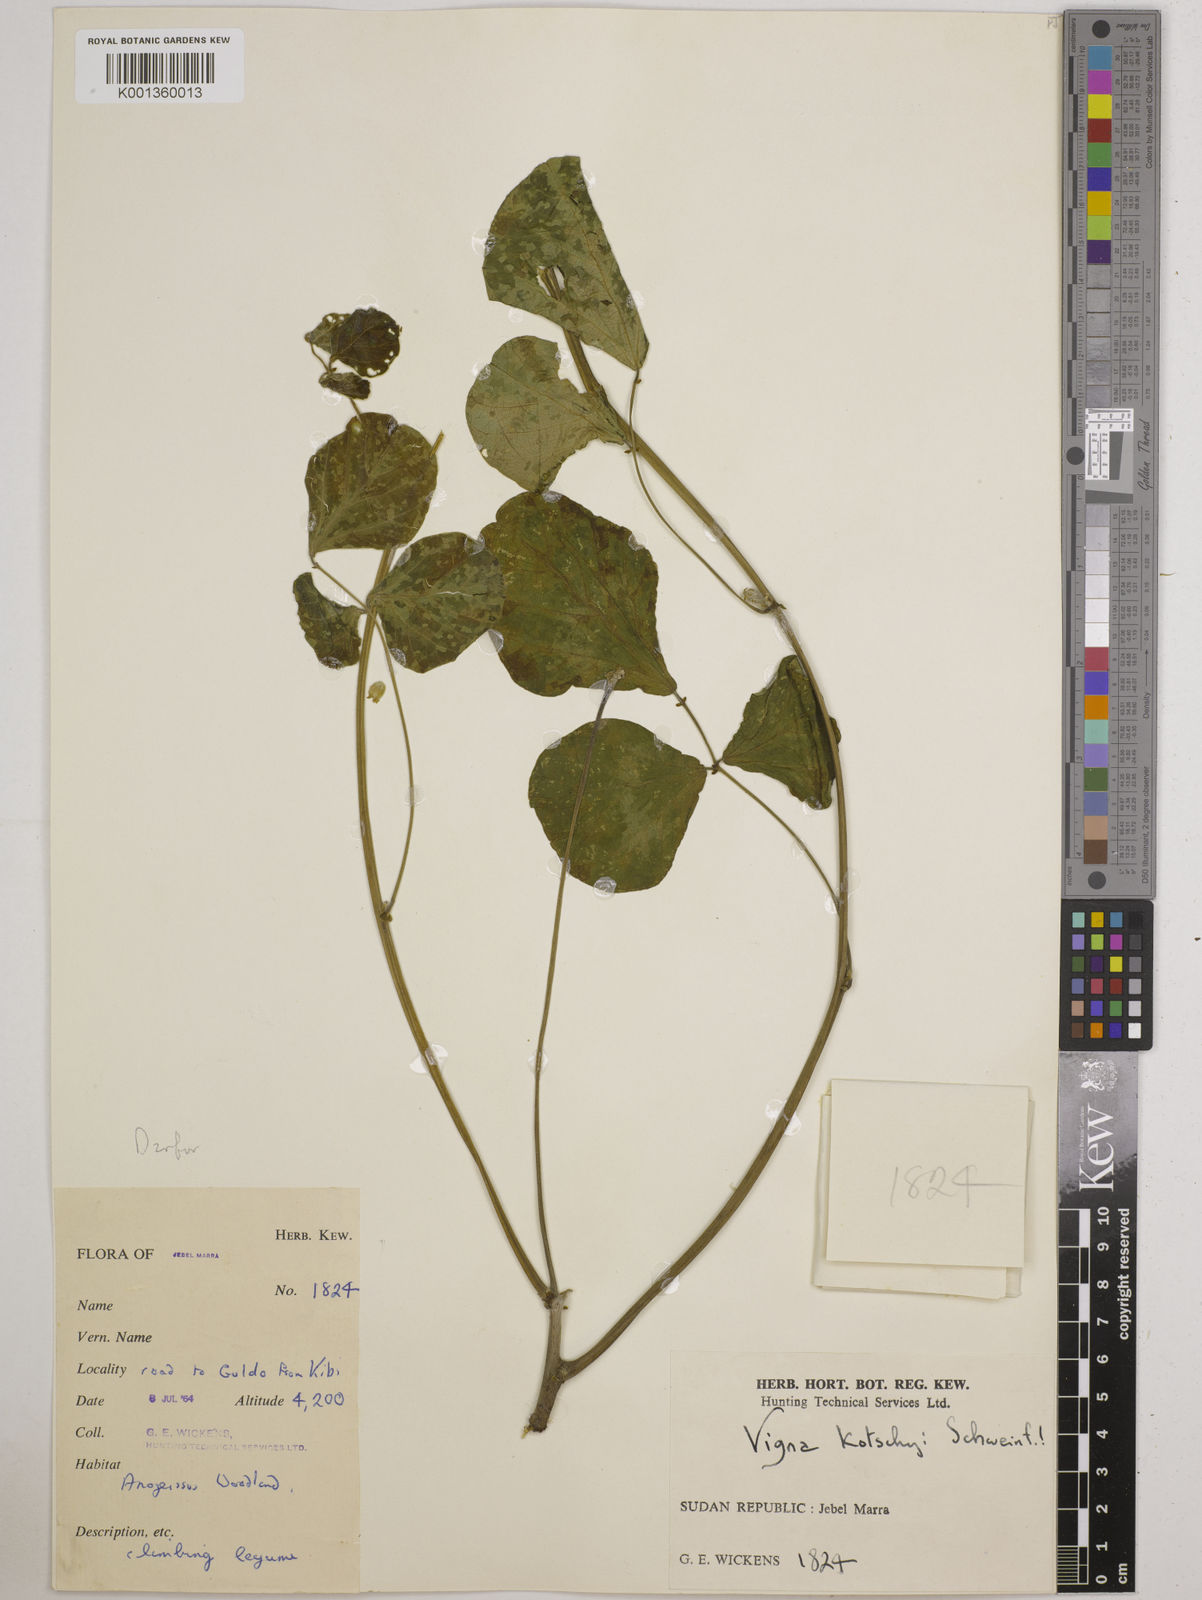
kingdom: Plantae
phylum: Tracheophyta
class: Magnoliopsida
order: Fabales
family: Fabaceae
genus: Vigna
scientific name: Vigna
